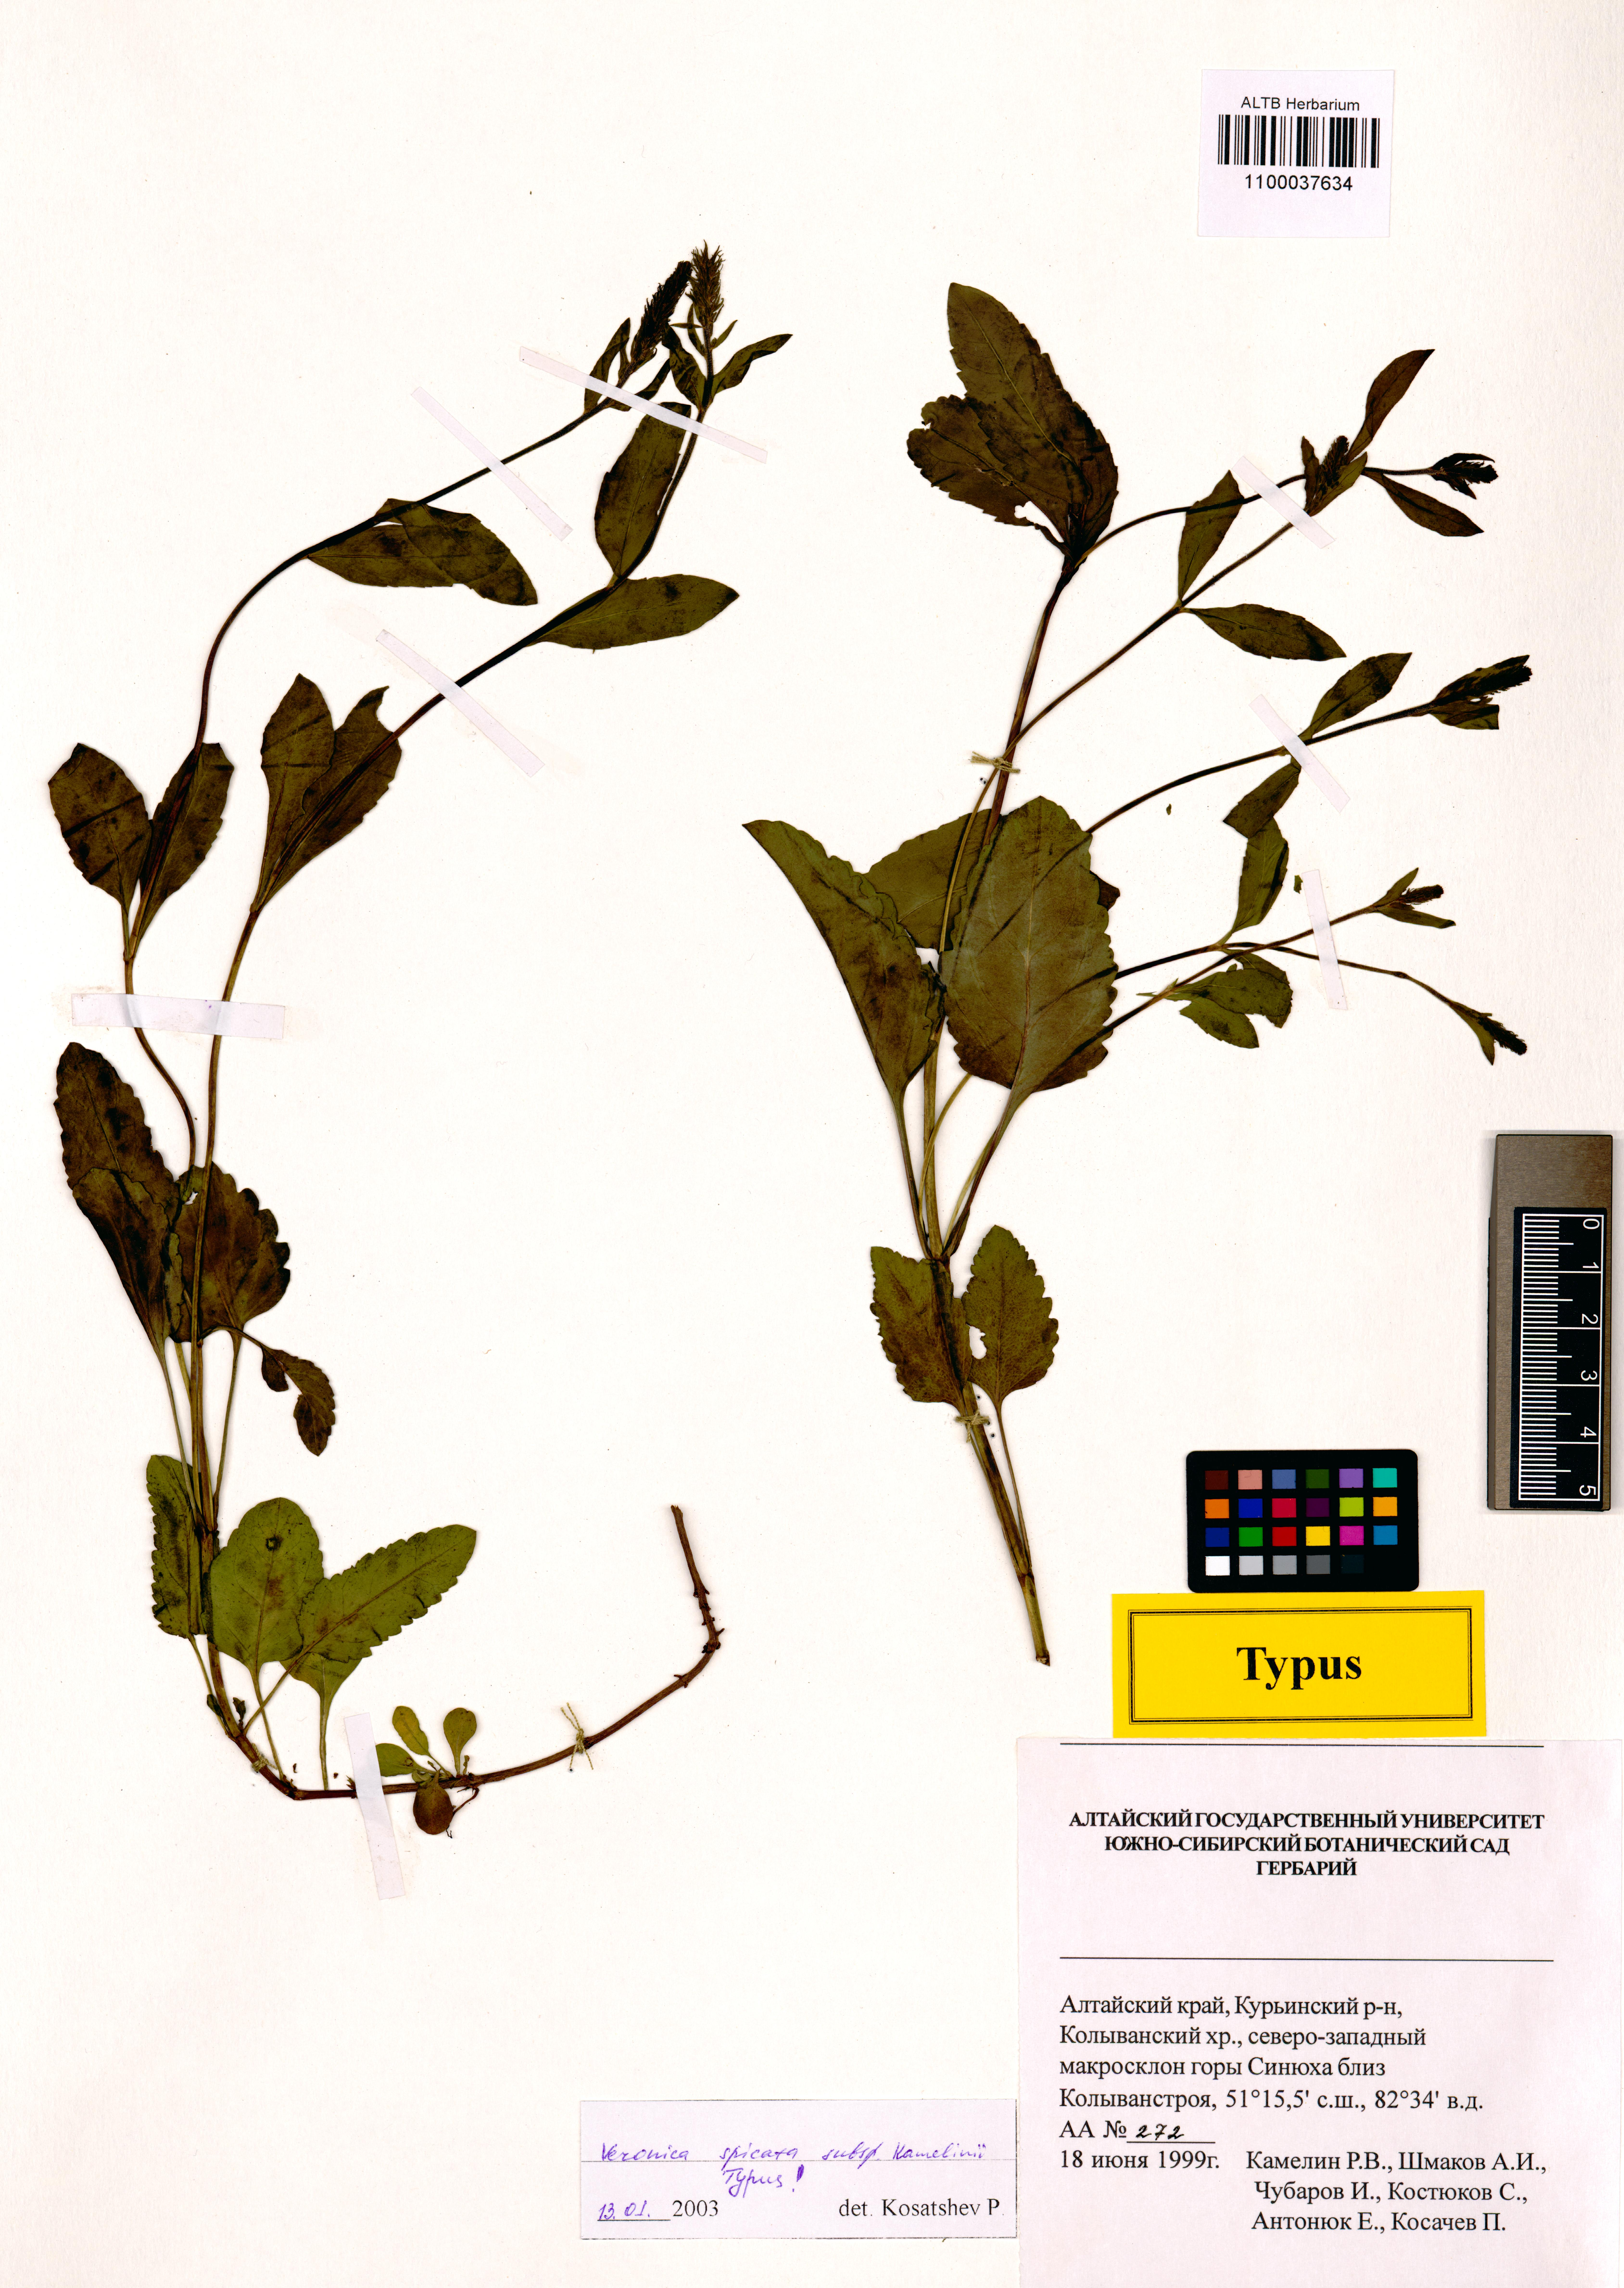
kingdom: Plantae
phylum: Tracheophyta
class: Magnoliopsida
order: Lamiales
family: Plantaginaceae
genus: Veronica
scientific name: Veronica spicata
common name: Spiked speedwell
